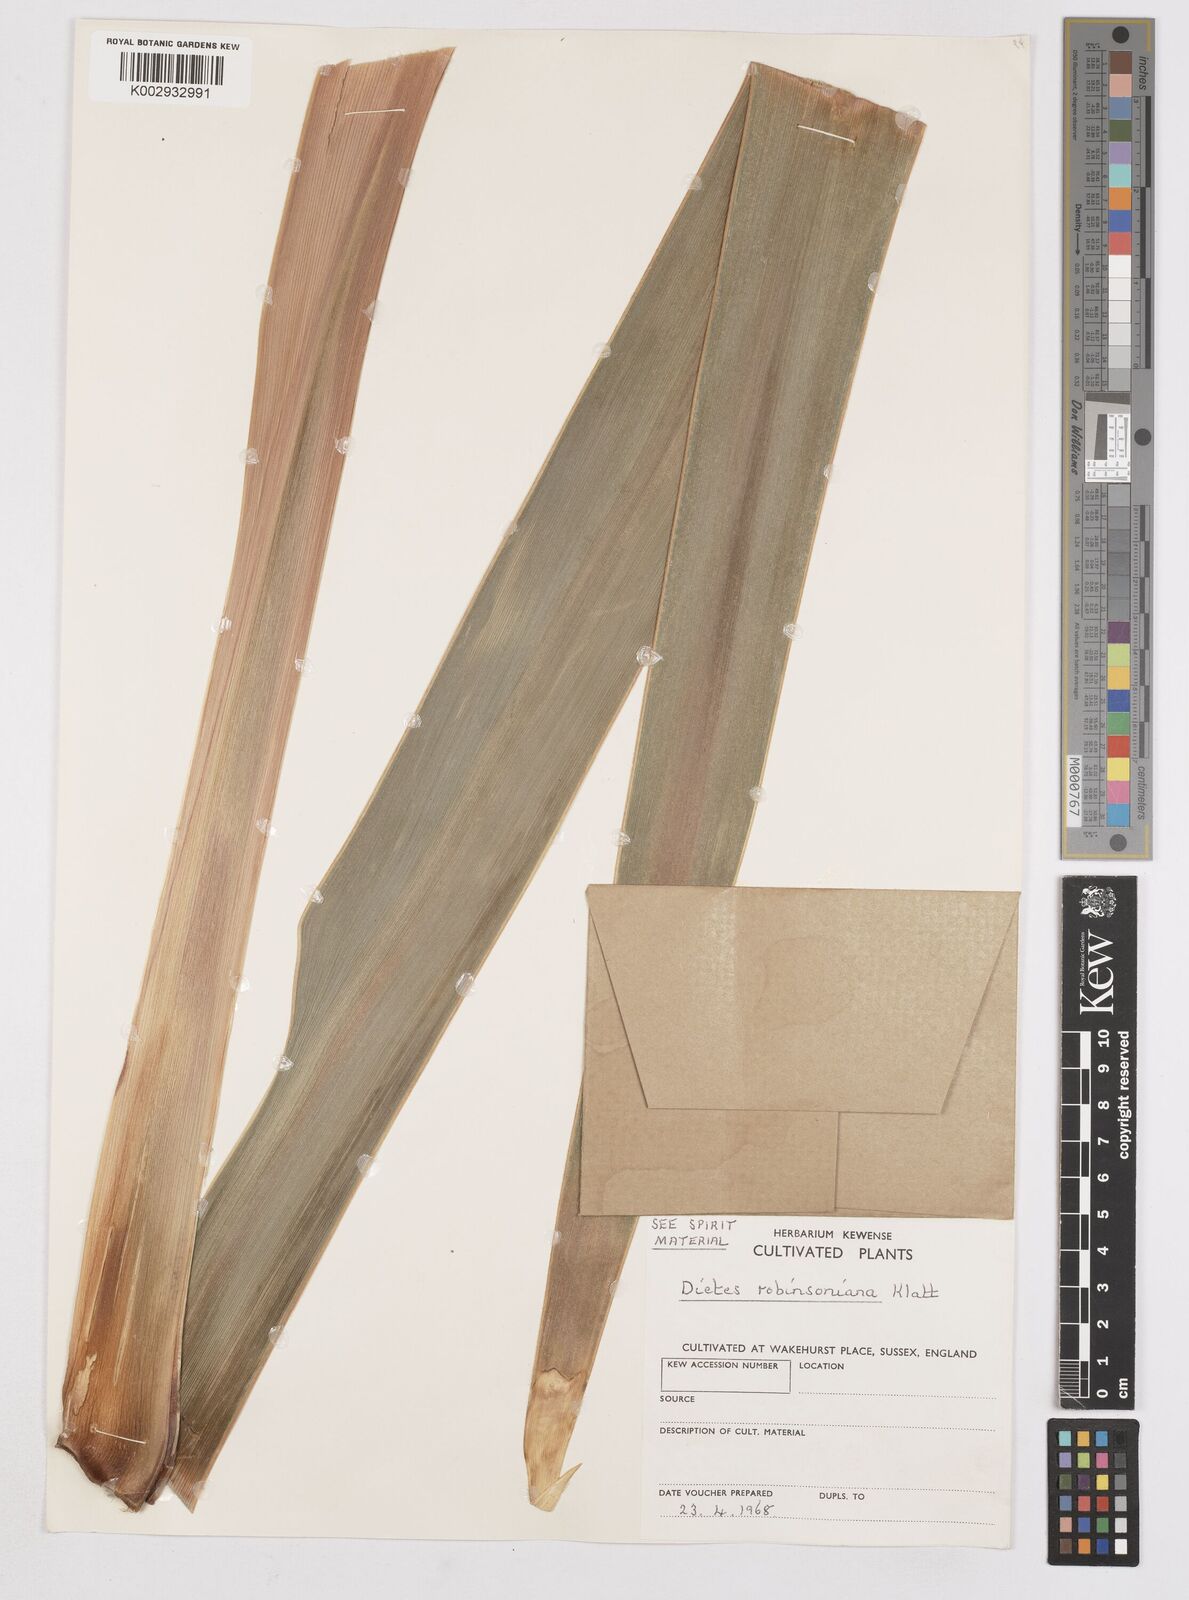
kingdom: Plantae
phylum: Tracheophyta
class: Liliopsida
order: Asparagales
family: Iridaceae
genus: Dietes
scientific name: Dietes robinsoniana
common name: Wedding-lily
